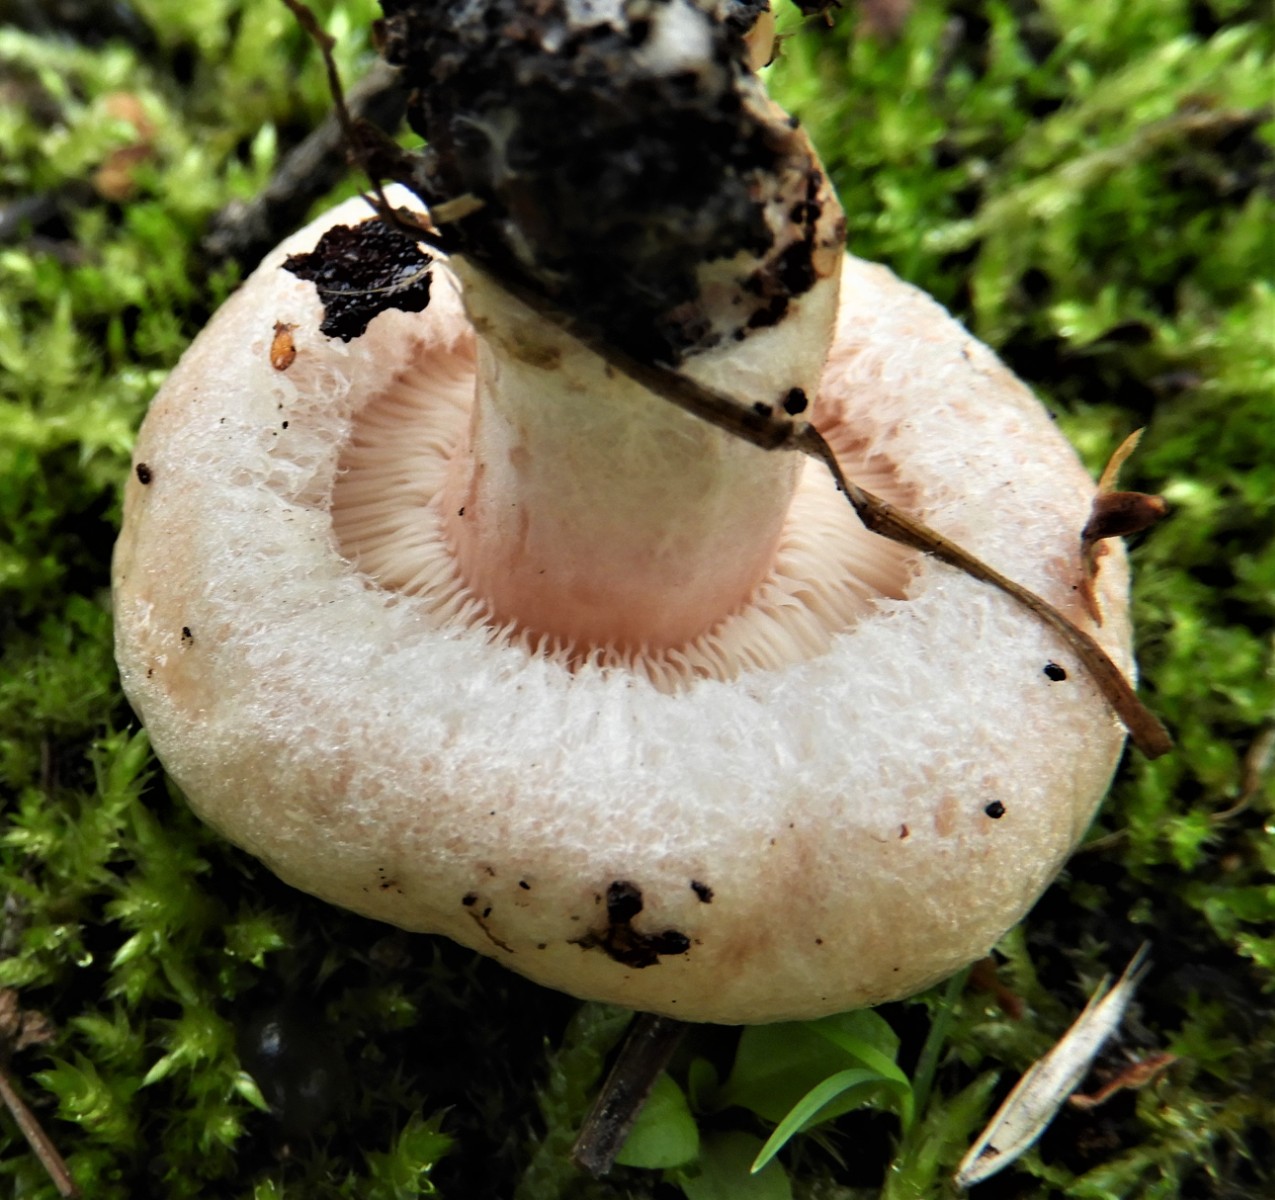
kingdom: Fungi
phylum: Basidiomycota
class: Agaricomycetes
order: Russulales
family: Russulaceae
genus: Lactarius
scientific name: Lactarius pubescens
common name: dunet mælkehat
